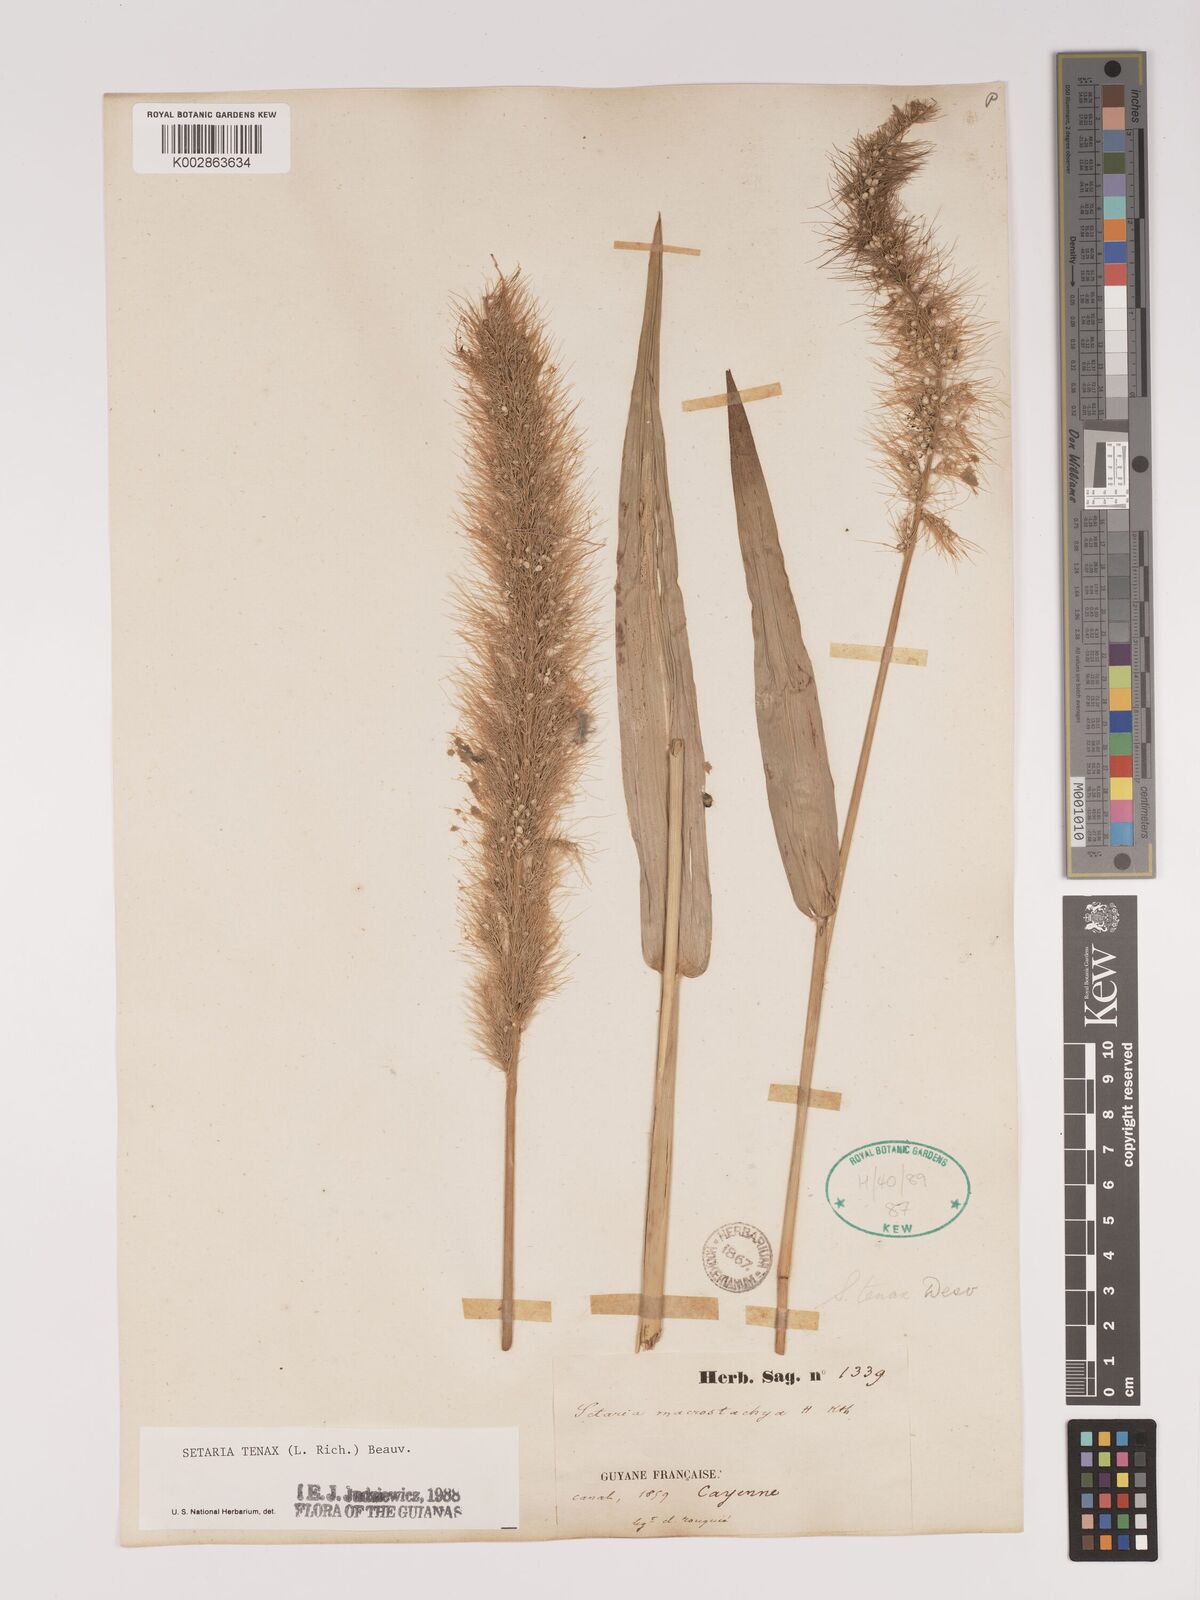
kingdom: Plantae
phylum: Tracheophyta
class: Liliopsida
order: Poales
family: Poaceae
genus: Setaria
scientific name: Setaria tenax
